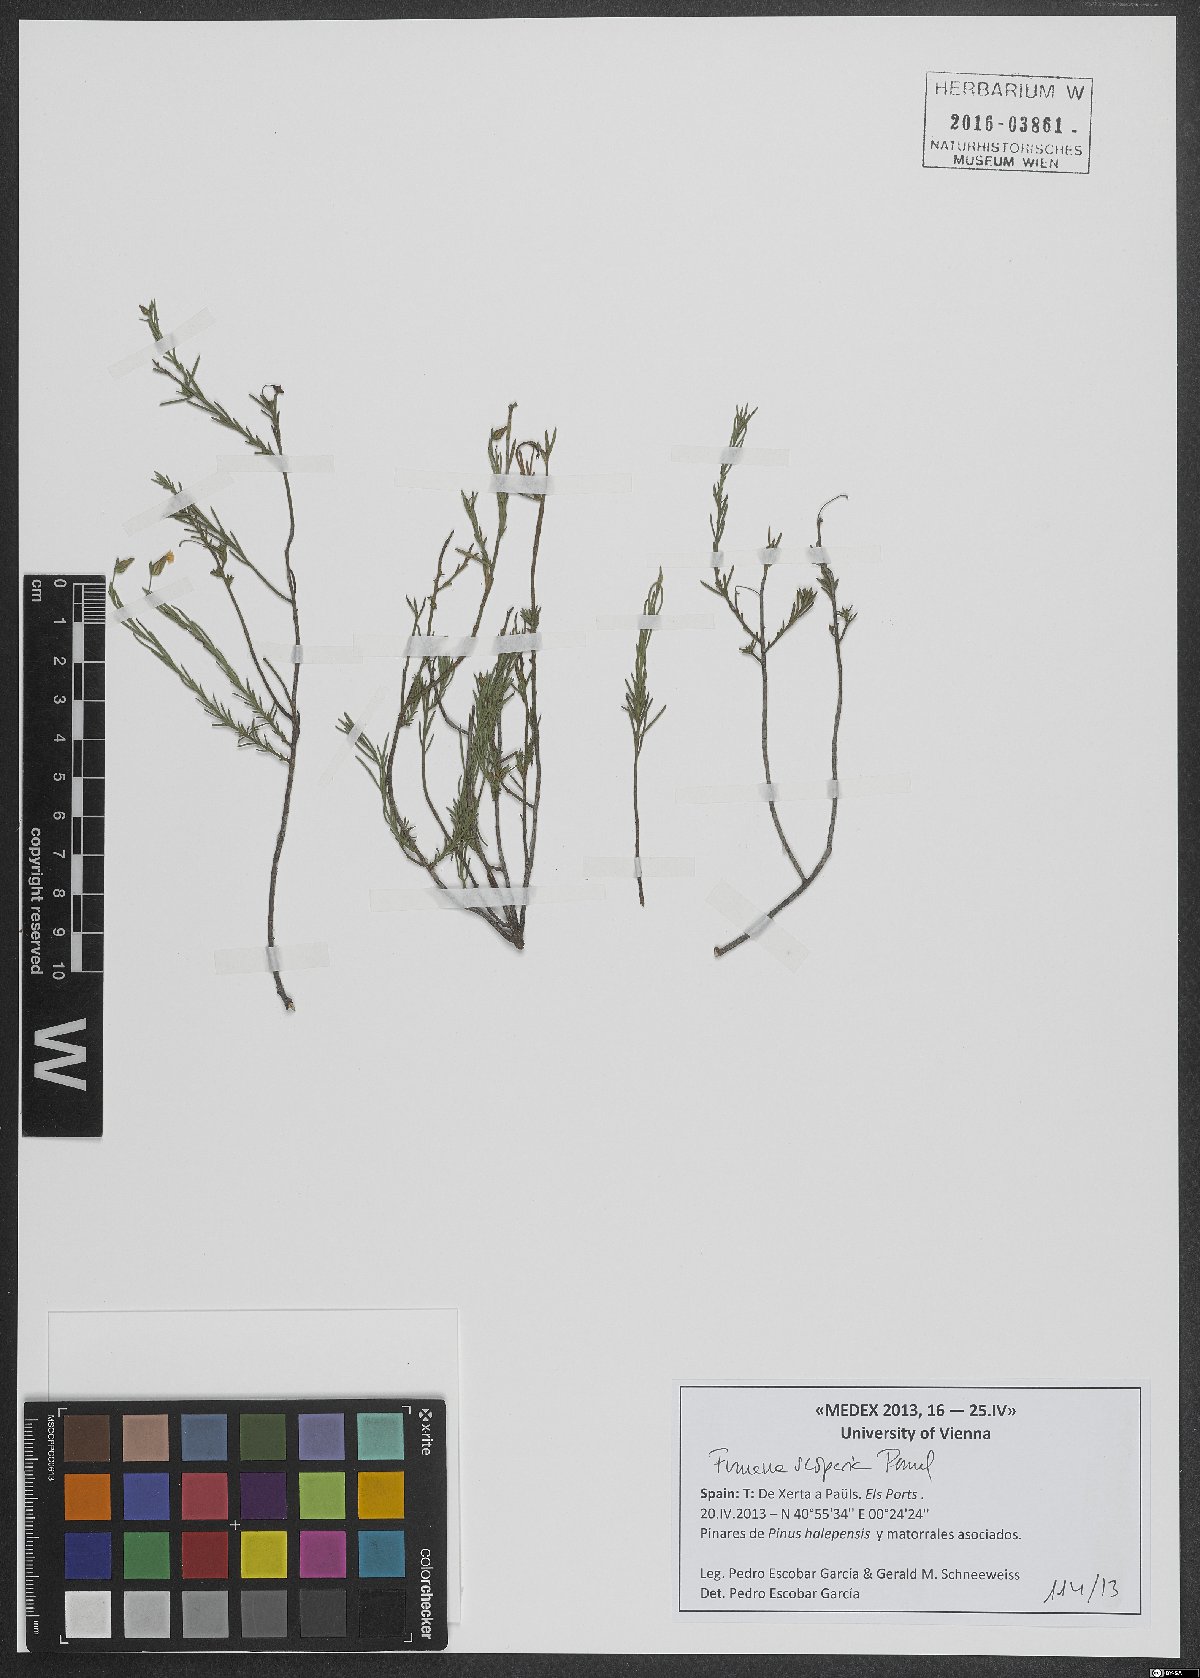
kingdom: Plantae
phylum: Tracheophyta
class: Magnoliopsida
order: Malvales
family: Cistaceae
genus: Fumana
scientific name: Fumana scoparia
